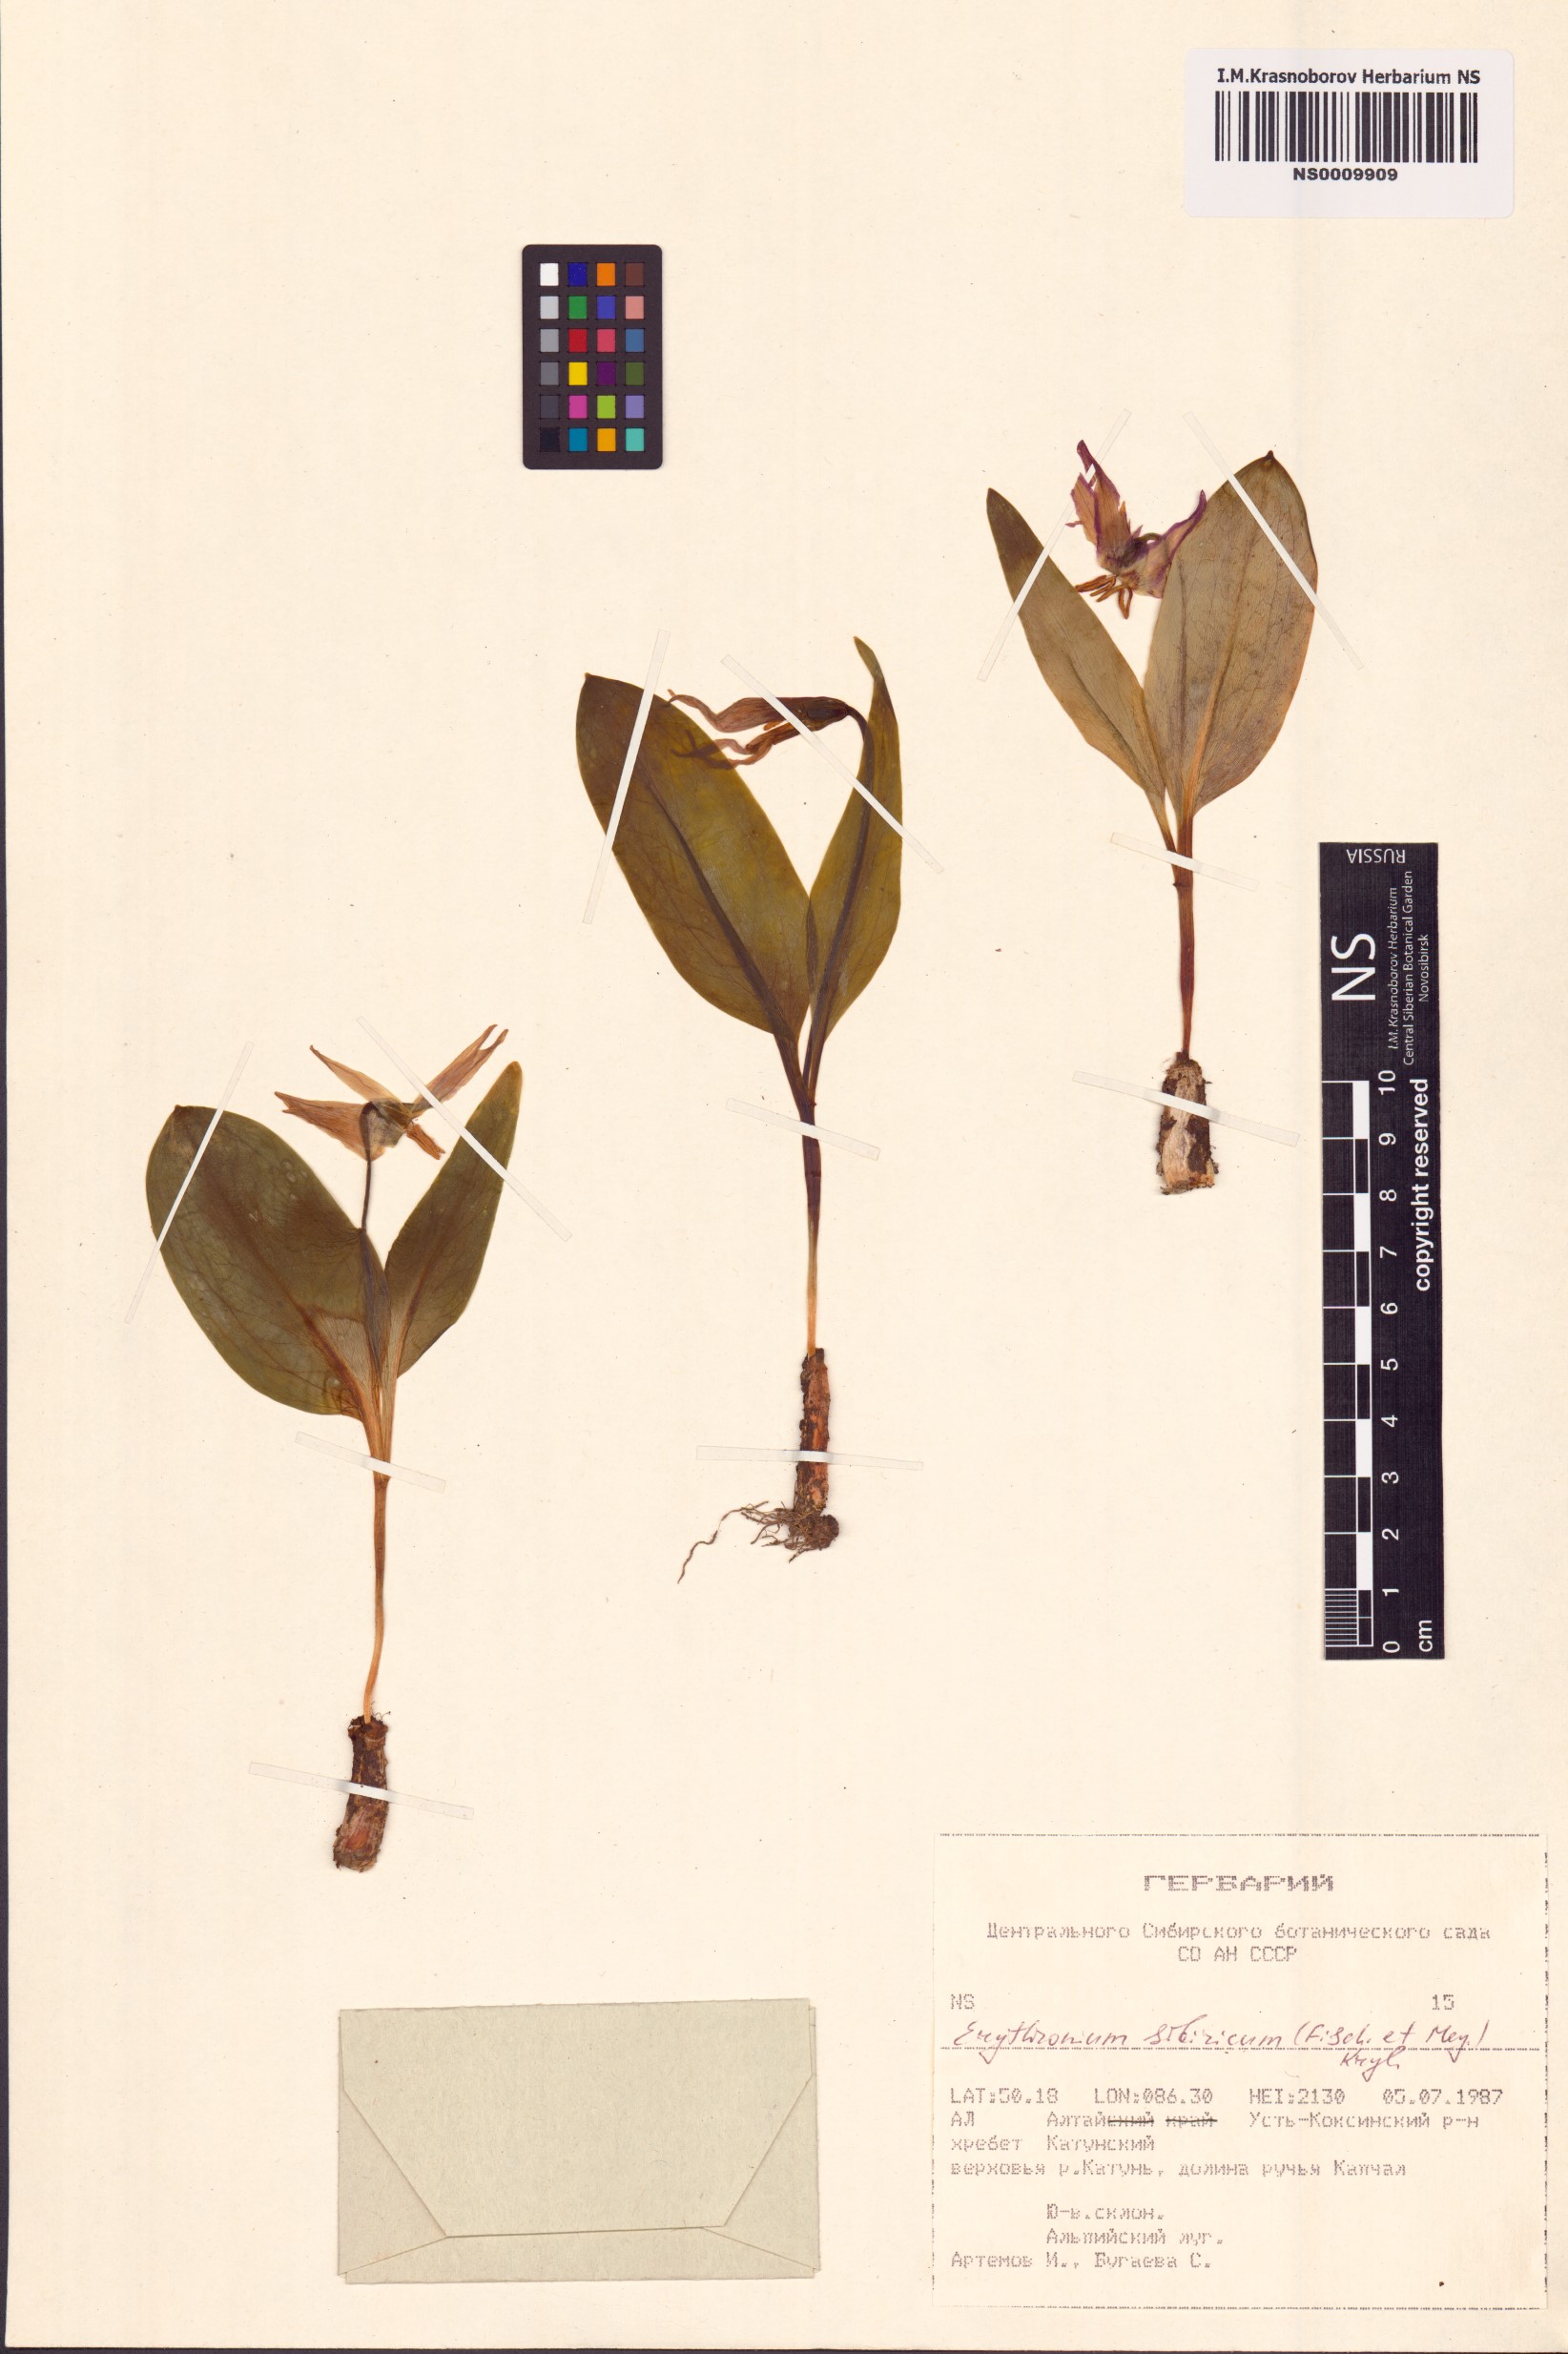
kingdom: Plantae
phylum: Tracheophyta
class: Liliopsida
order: Liliales
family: Liliaceae
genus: Erythronium
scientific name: Erythronium sibiricum
